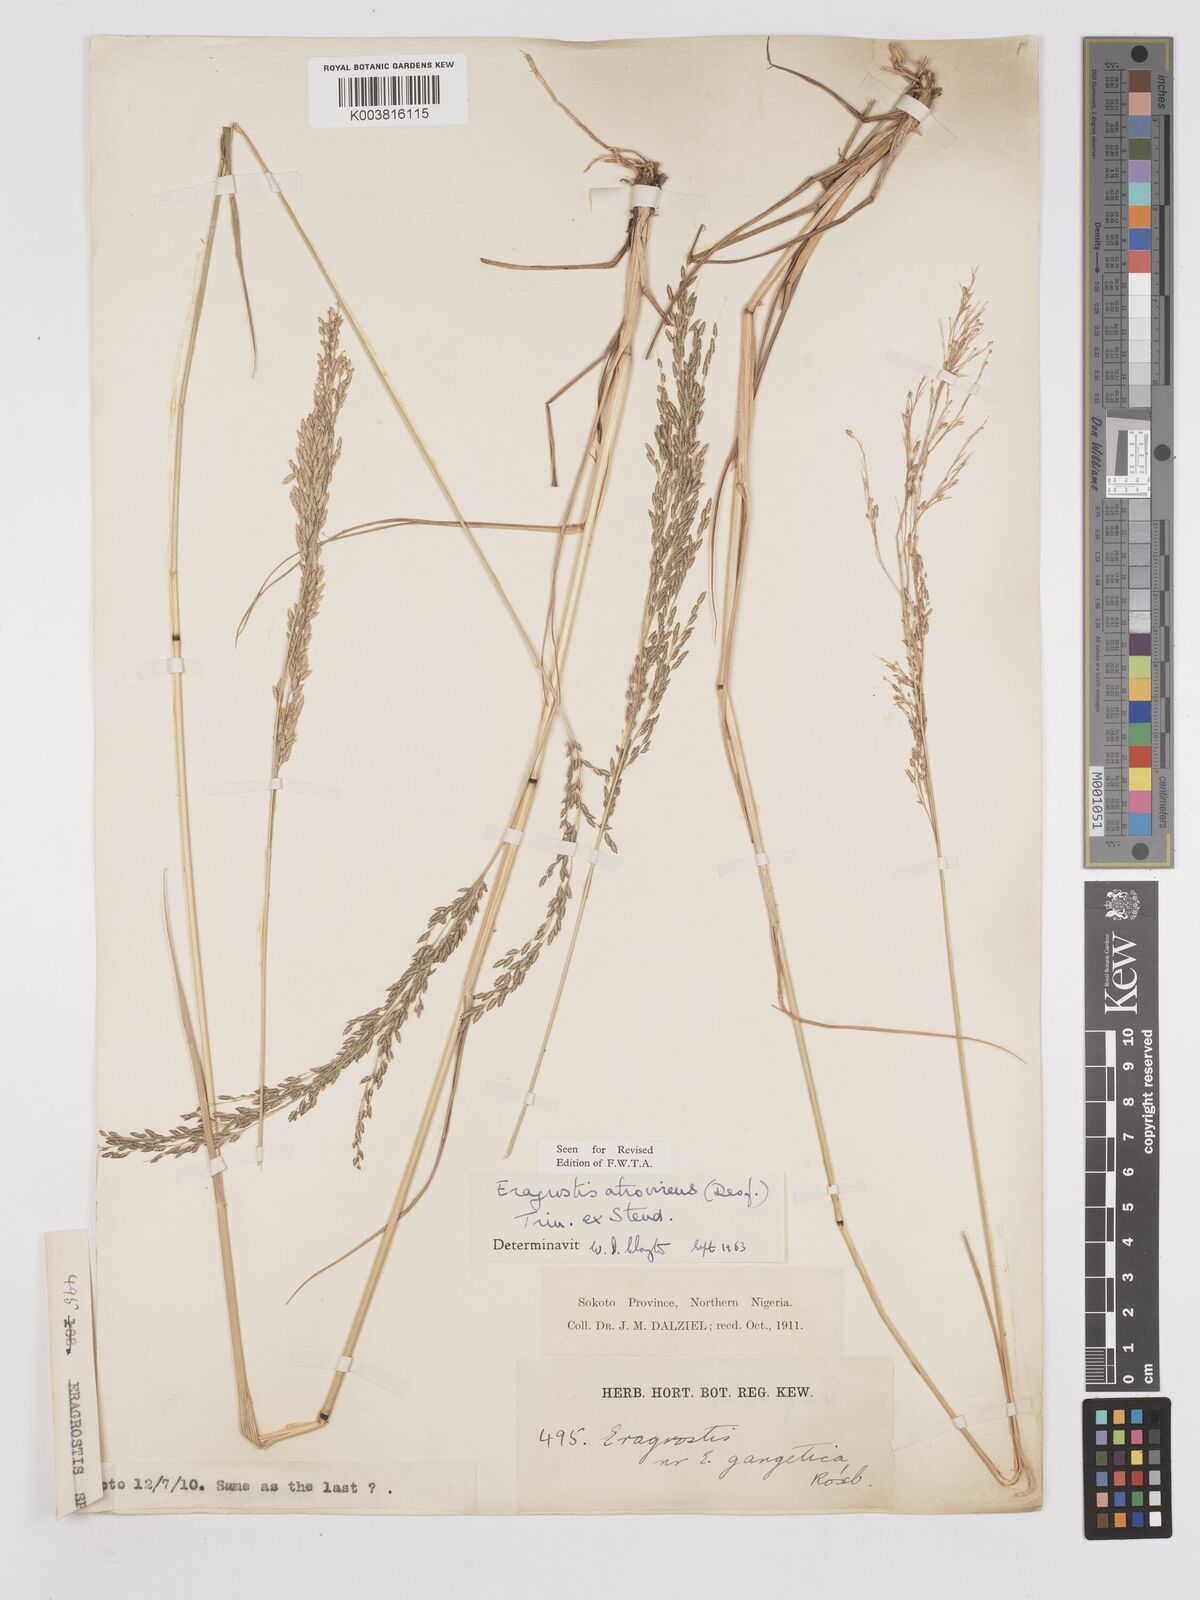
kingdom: Plantae
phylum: Tracheophyta
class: Liliopsida
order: Poales
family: Poaceae
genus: Eragrostis
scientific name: Eragrostis atrovirens
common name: Thalia lovegrass
